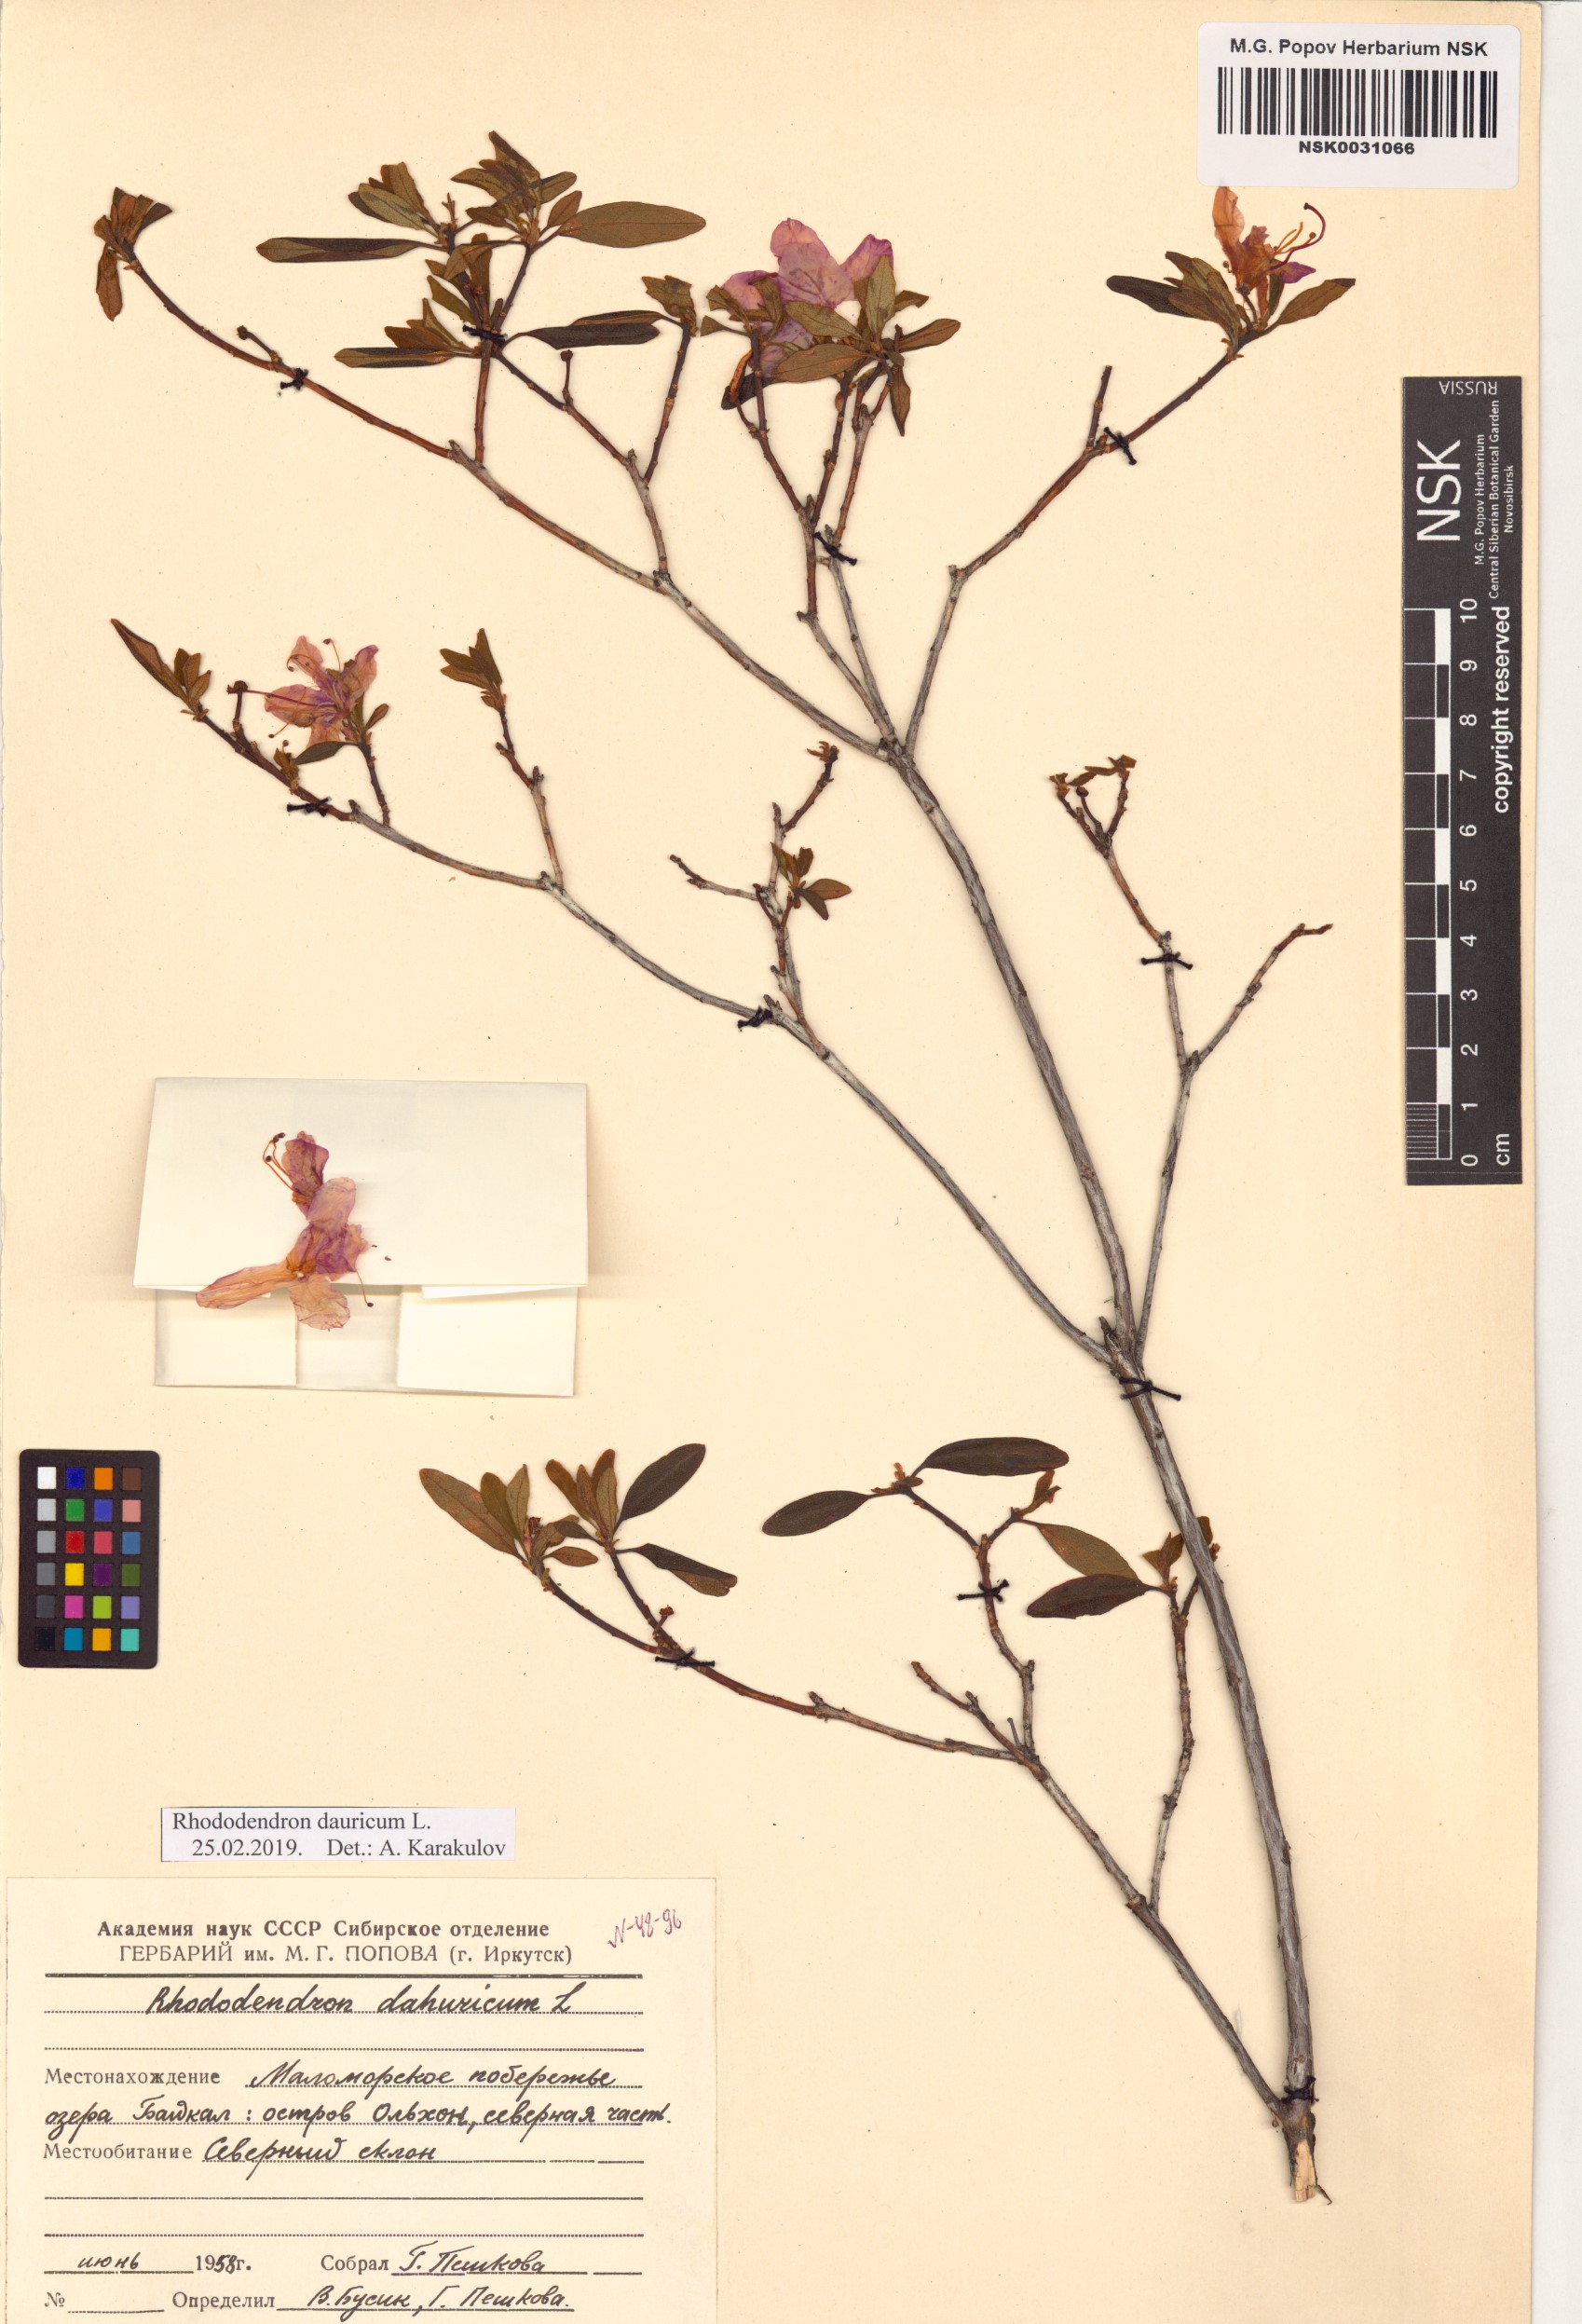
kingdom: Plantae
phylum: Tracheophyta
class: Magnoliopsida
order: Ericales
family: Ericaceae
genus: Rhododendron
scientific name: Rhododendron dauricum
